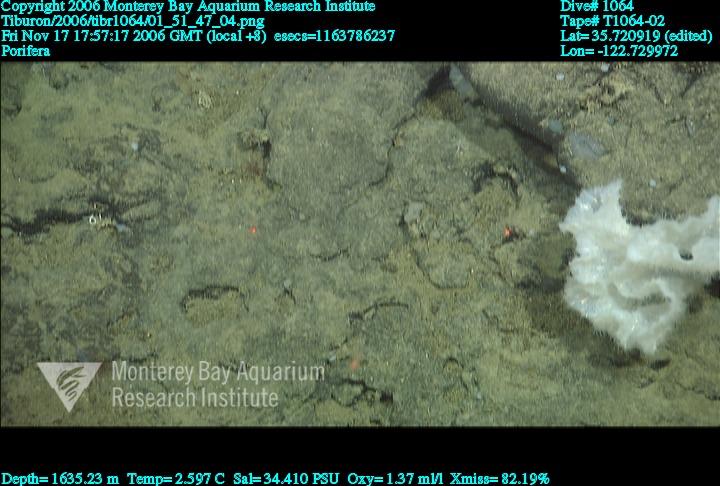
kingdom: Animalia
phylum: Porifera
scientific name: Porifera
